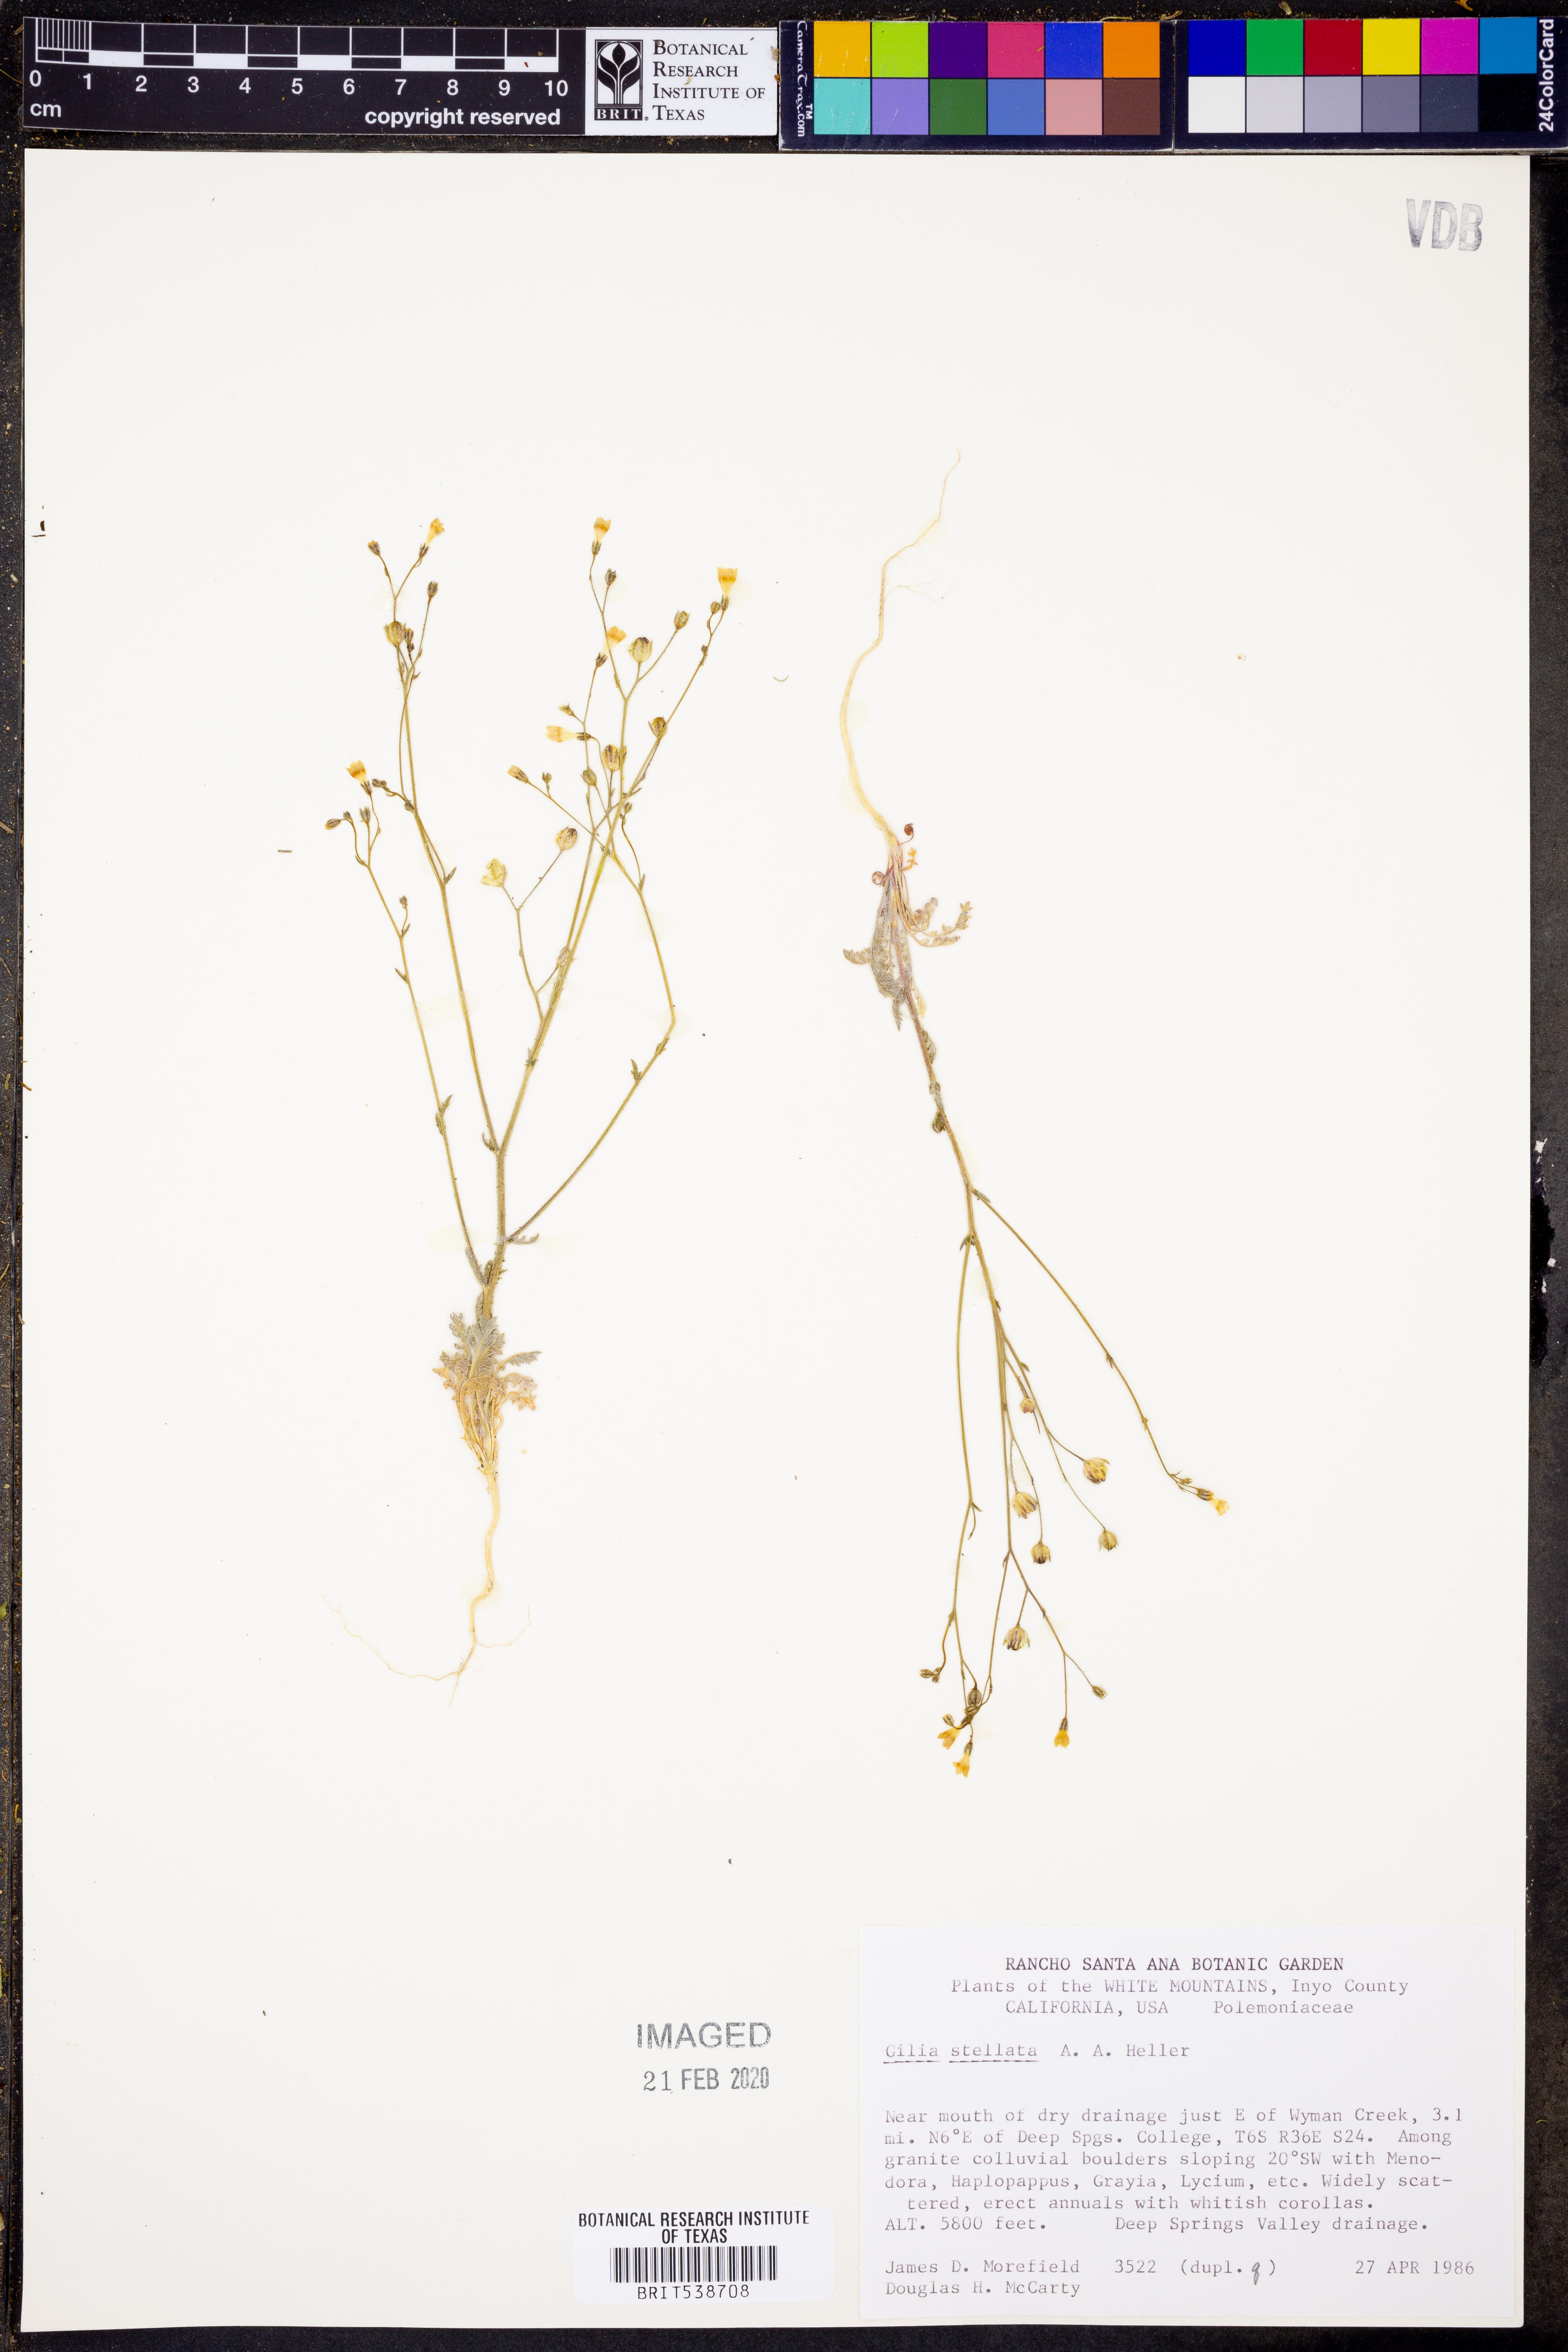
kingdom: Plantae
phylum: Tracheophyta
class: Magnoliopsida
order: Ericales
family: Polemoniaceae
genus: Gilia
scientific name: Gilia stellata
